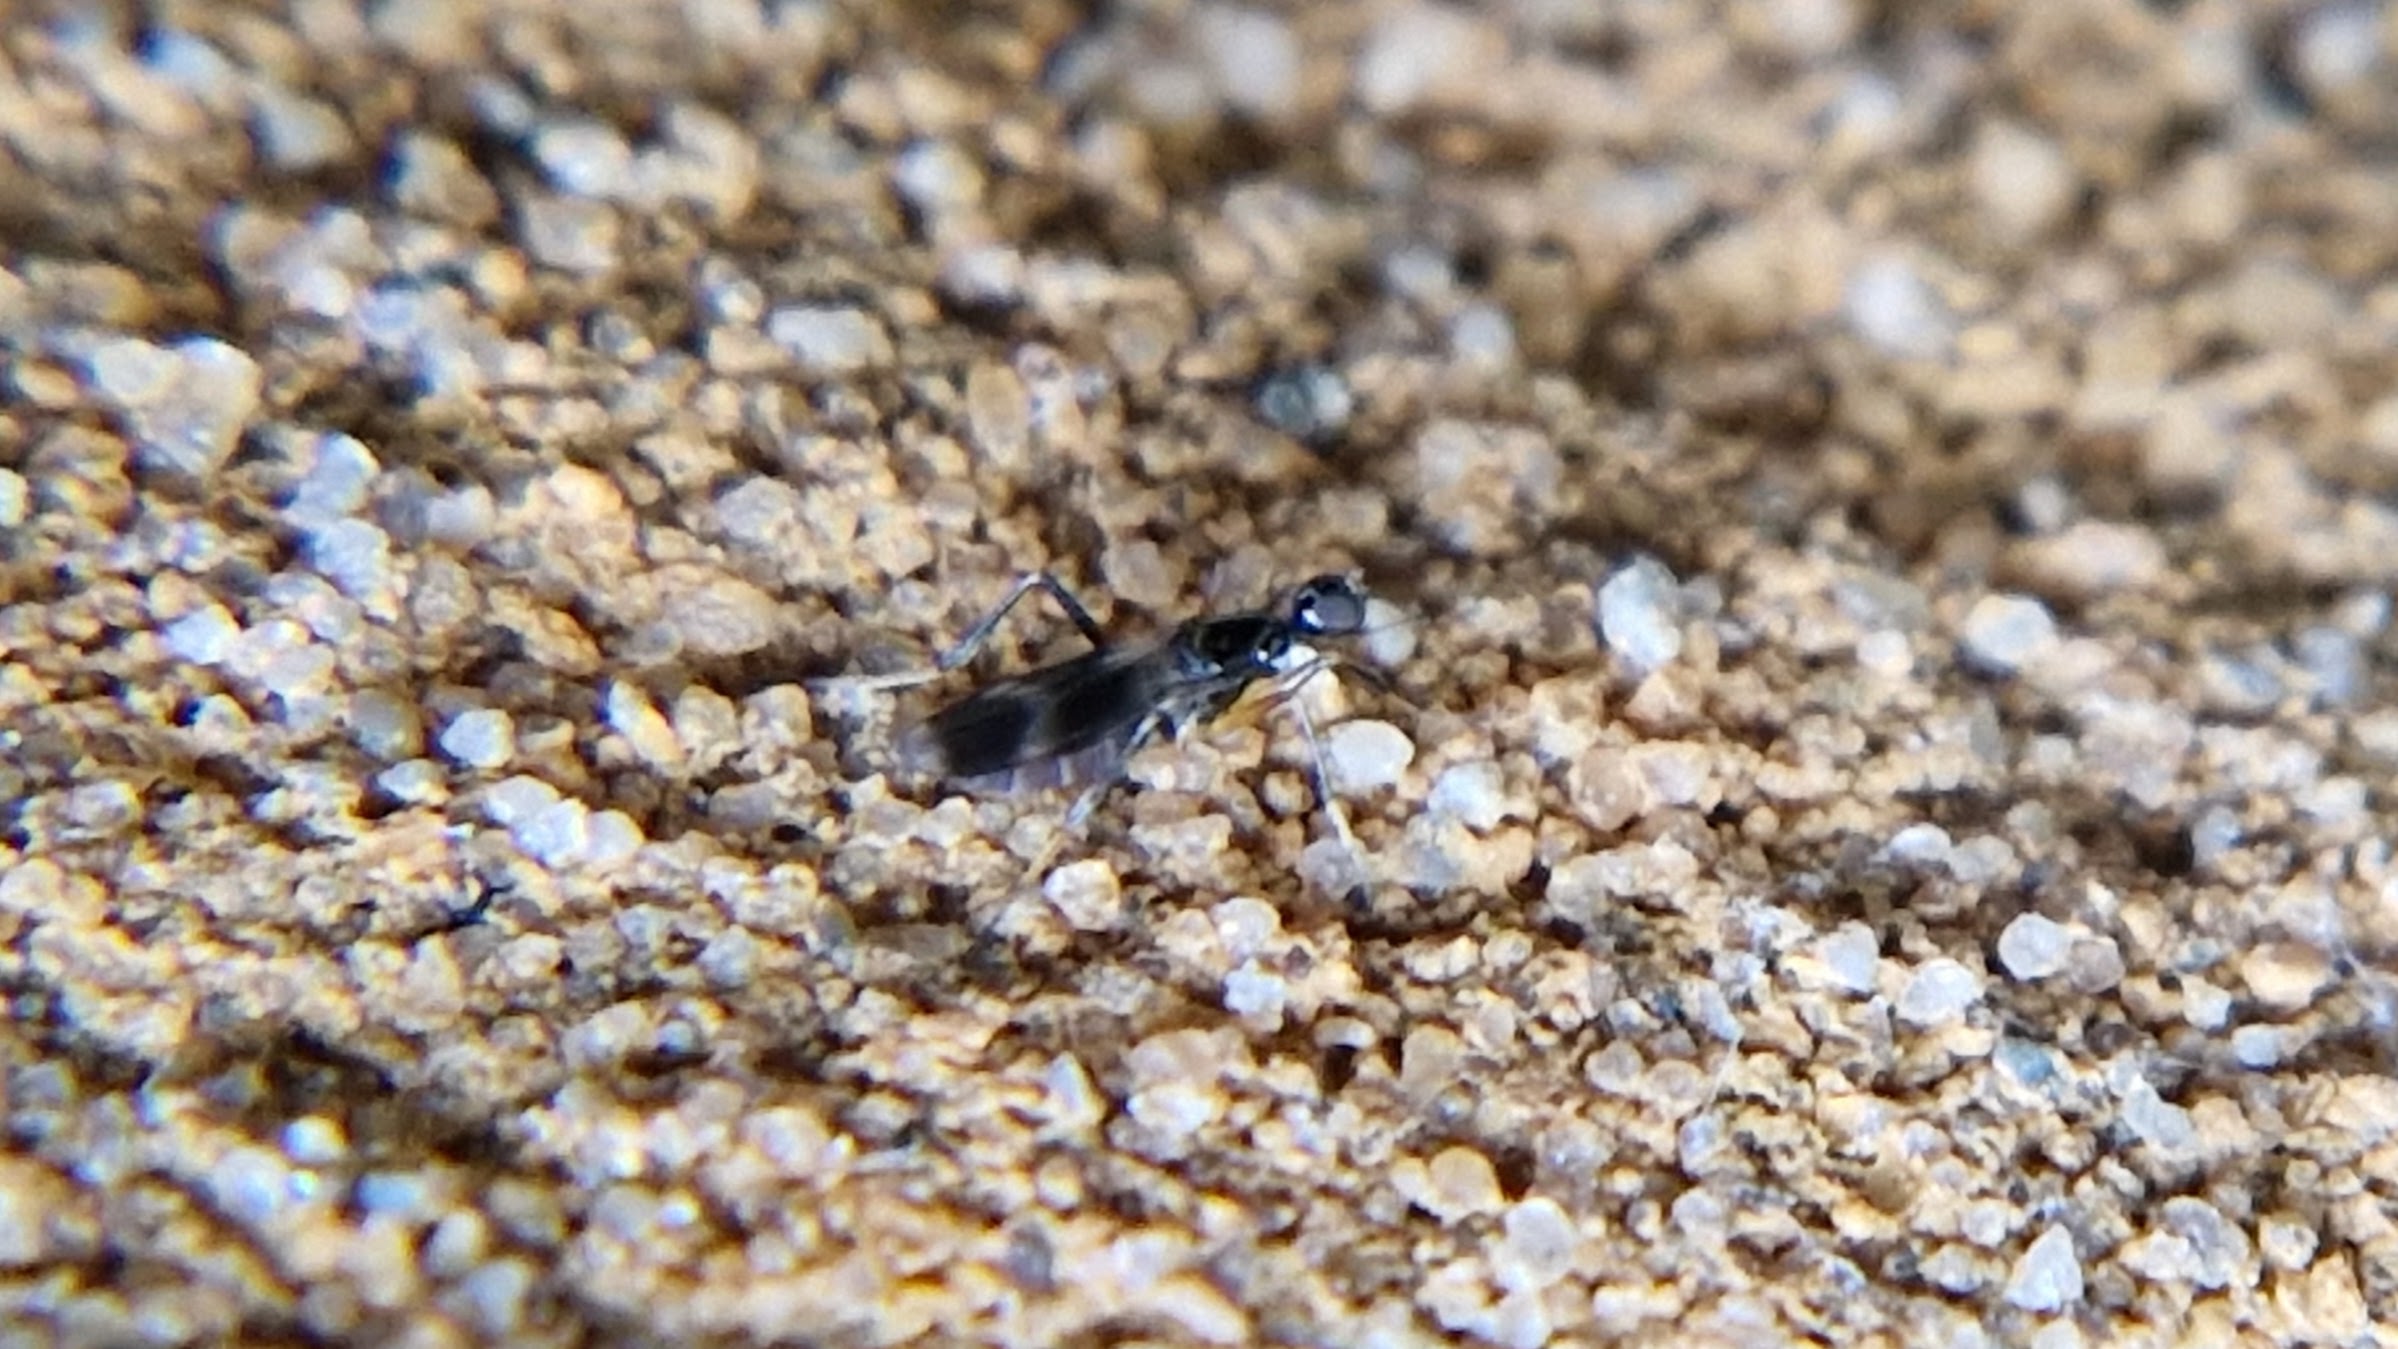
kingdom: Animalia
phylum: Arthropoda
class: Insecta
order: Diptera
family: Hybotidae
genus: Tachydromia
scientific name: Tachydromia
